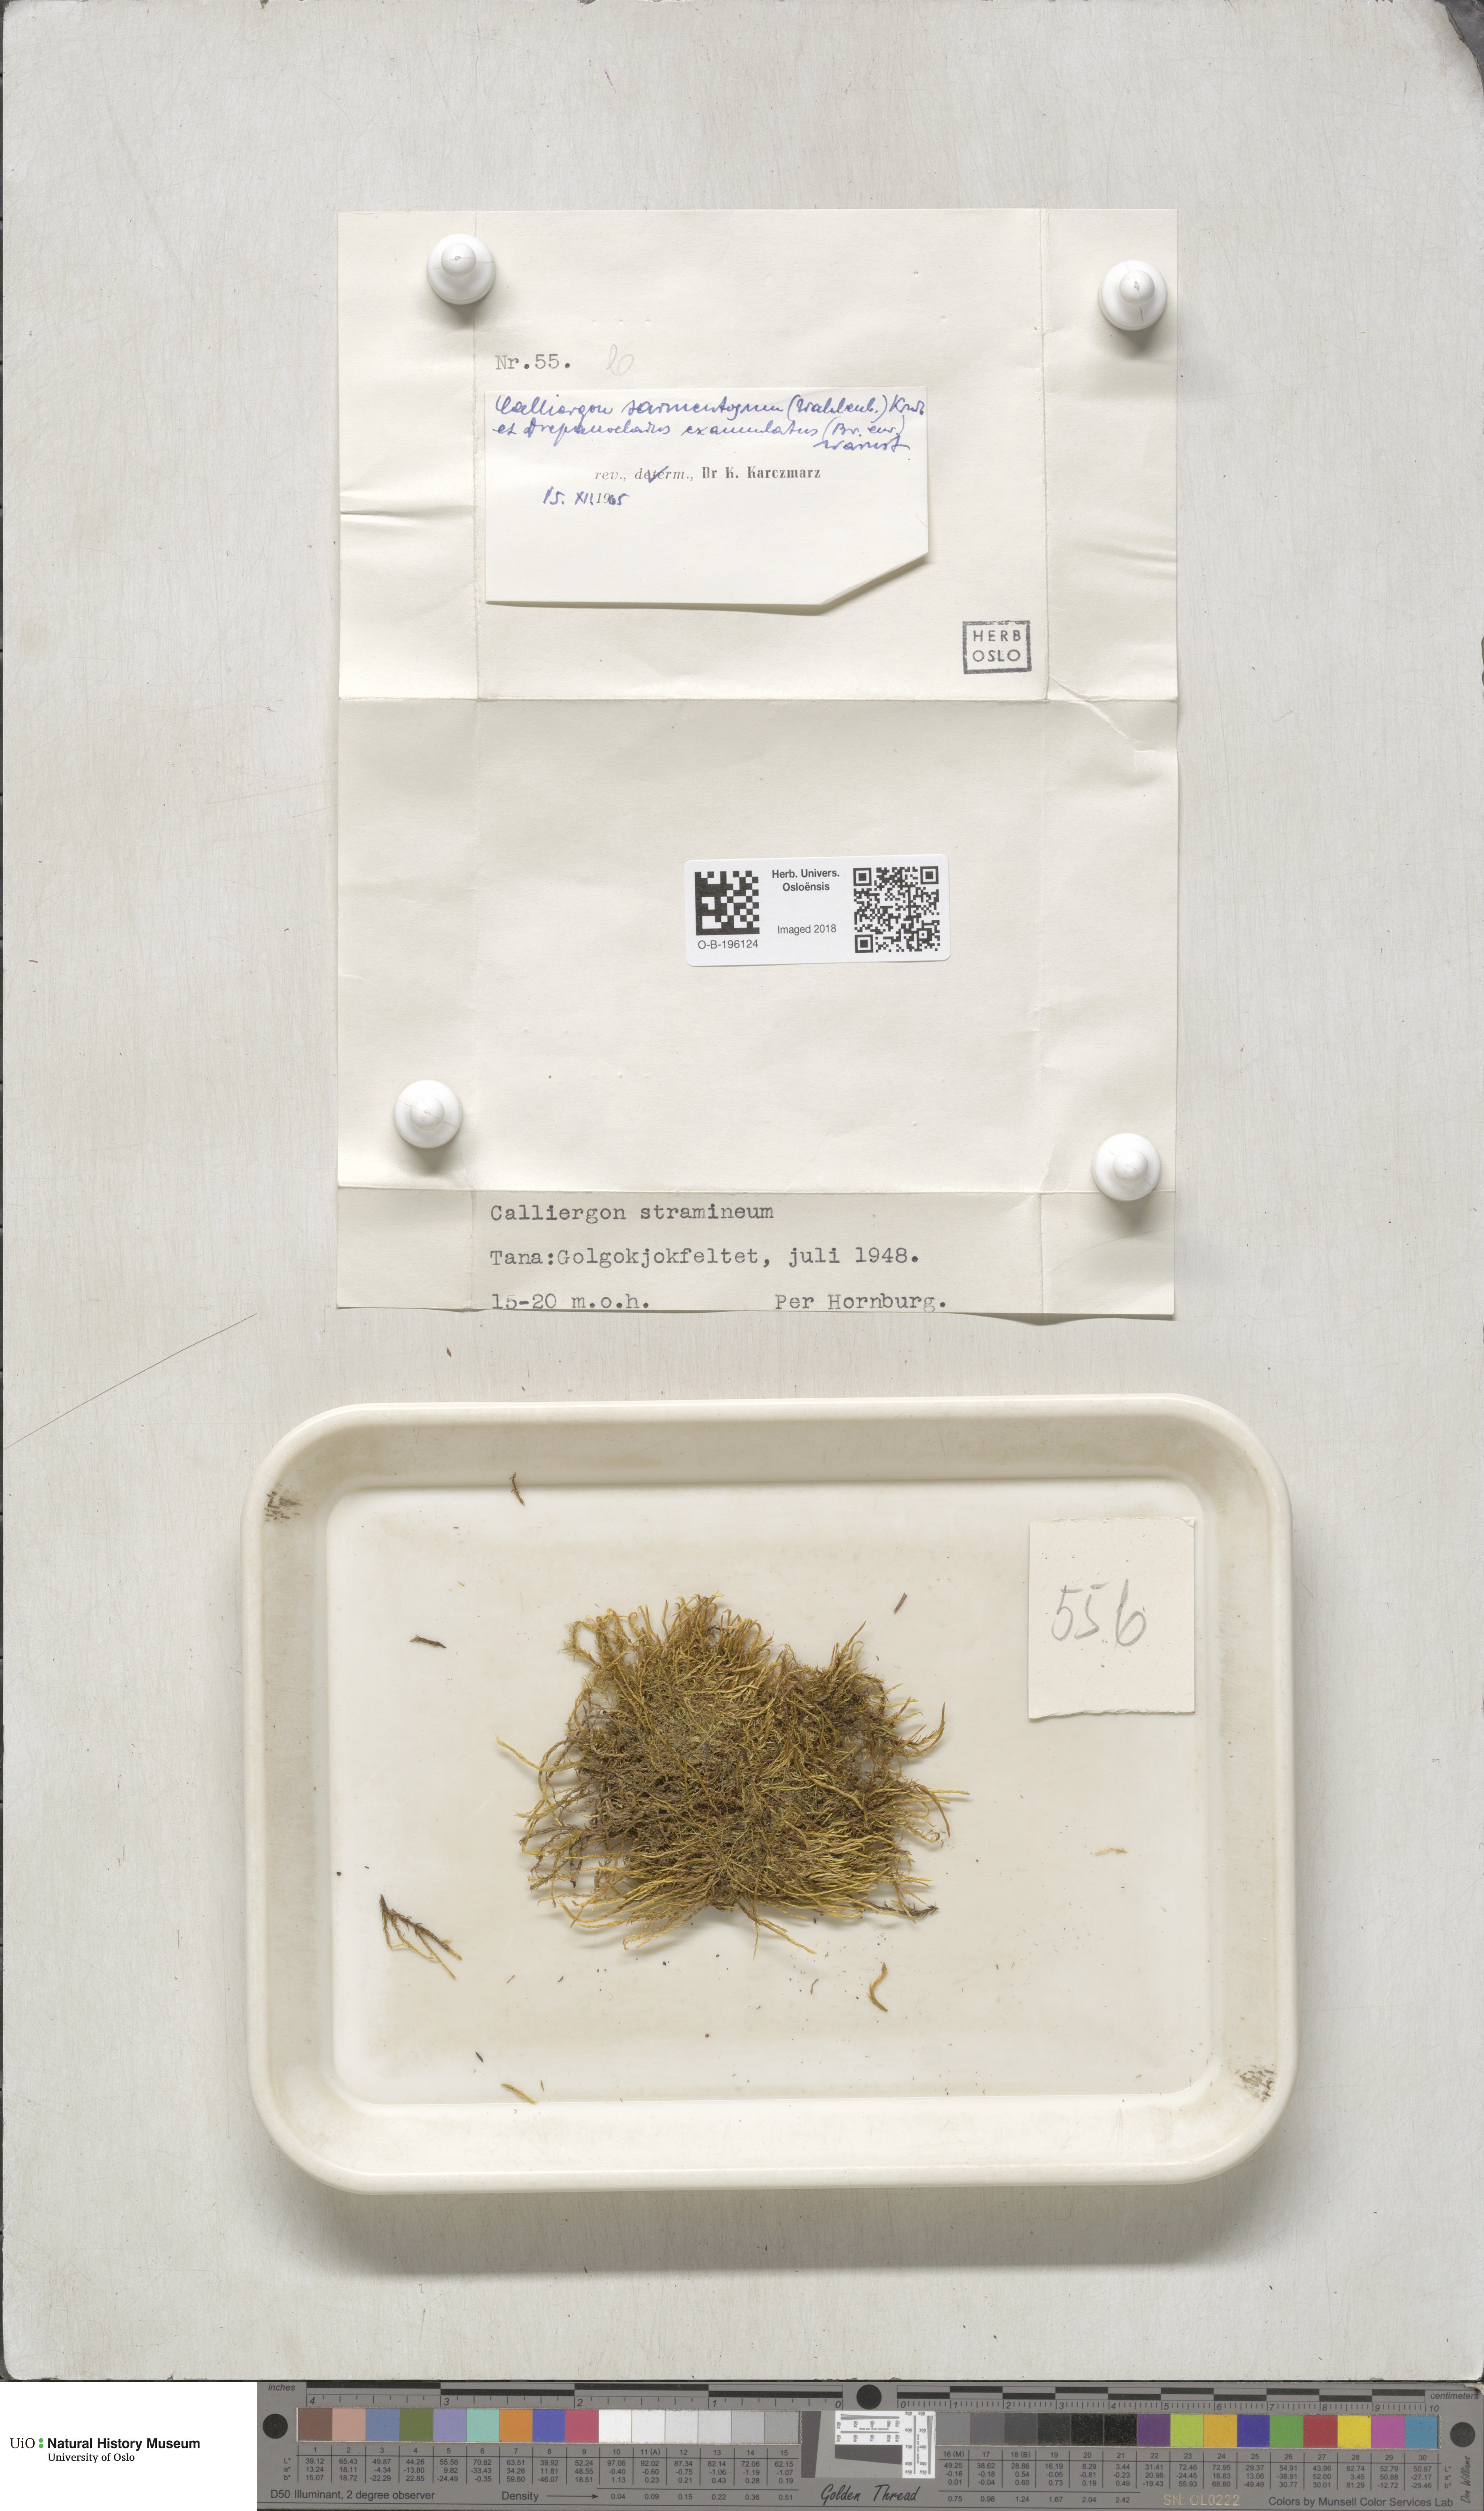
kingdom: Plantae
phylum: Bryophyta
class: Bryopsida
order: Hypnales
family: Calliergonaceae
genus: Sarmentypnum
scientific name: Sarmentypnum sarmentosum
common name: Twiggy spoon moss
